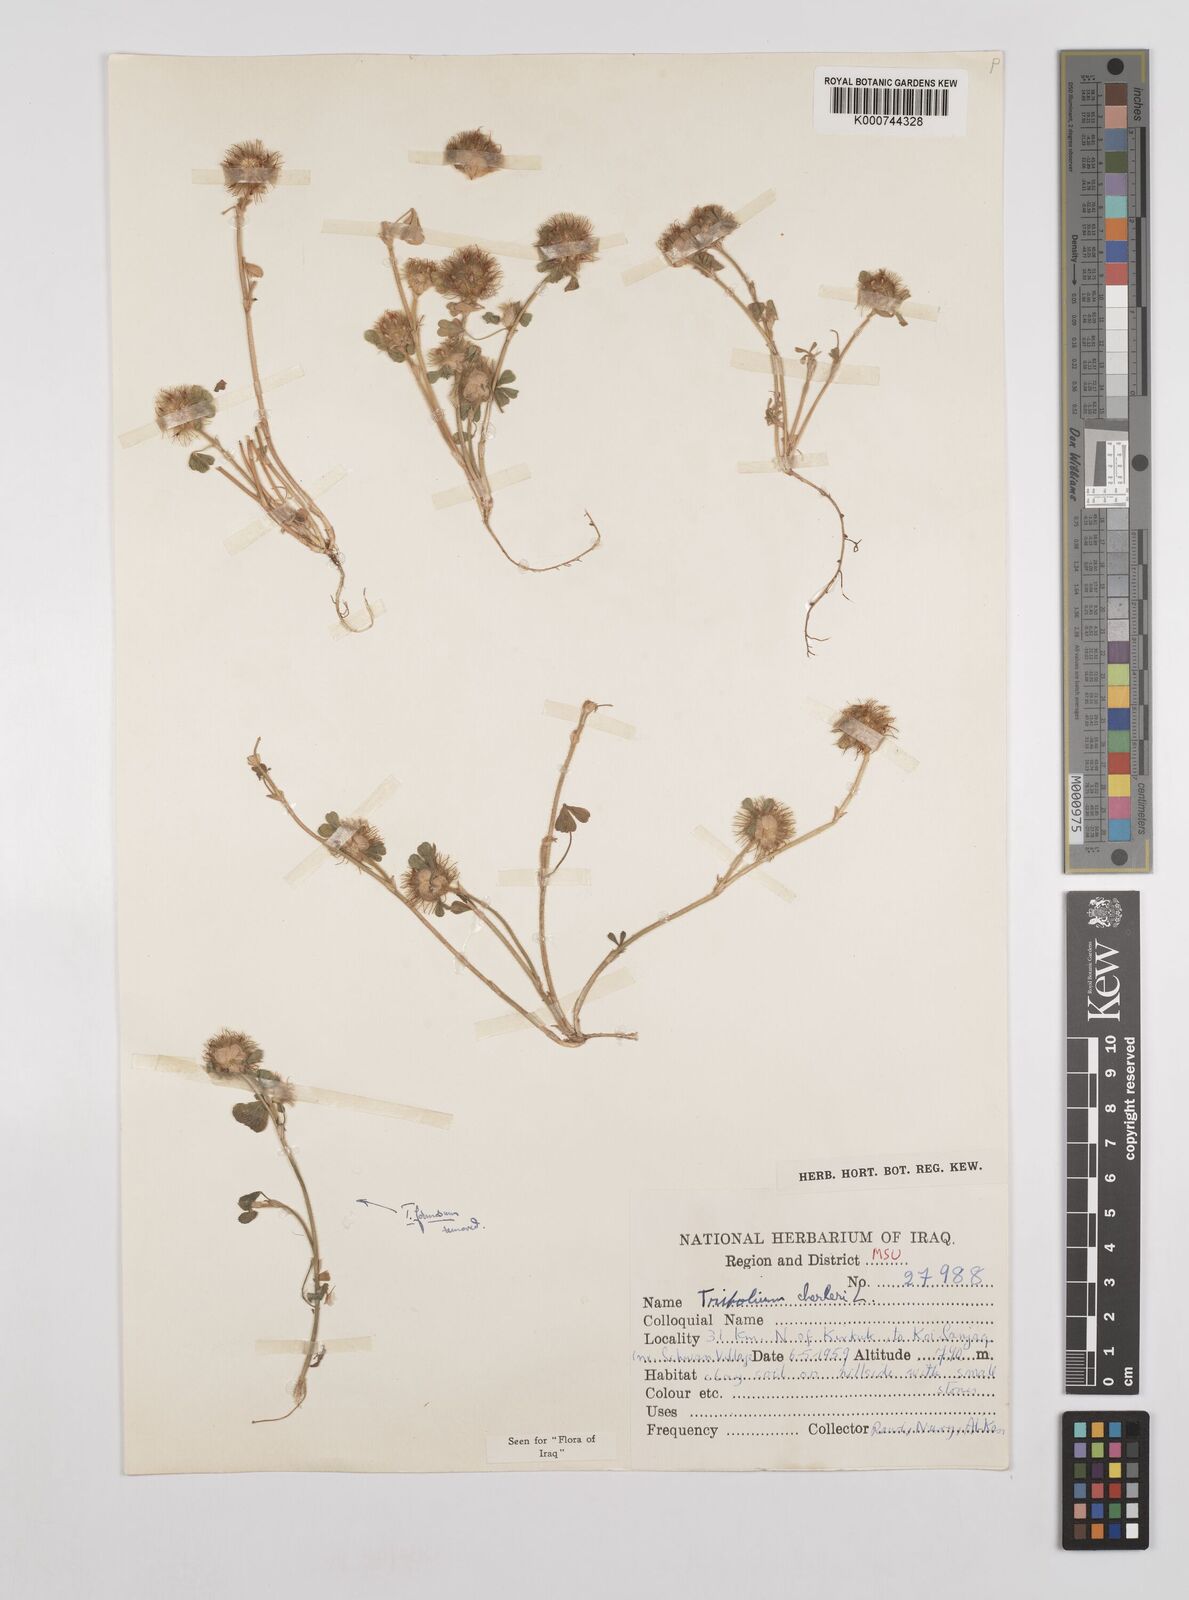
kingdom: Plantae
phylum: Tracheophyta
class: Magnoliopsida
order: Fabales
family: Fabaceae
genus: Trifolium
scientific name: Trifolium cherleri
